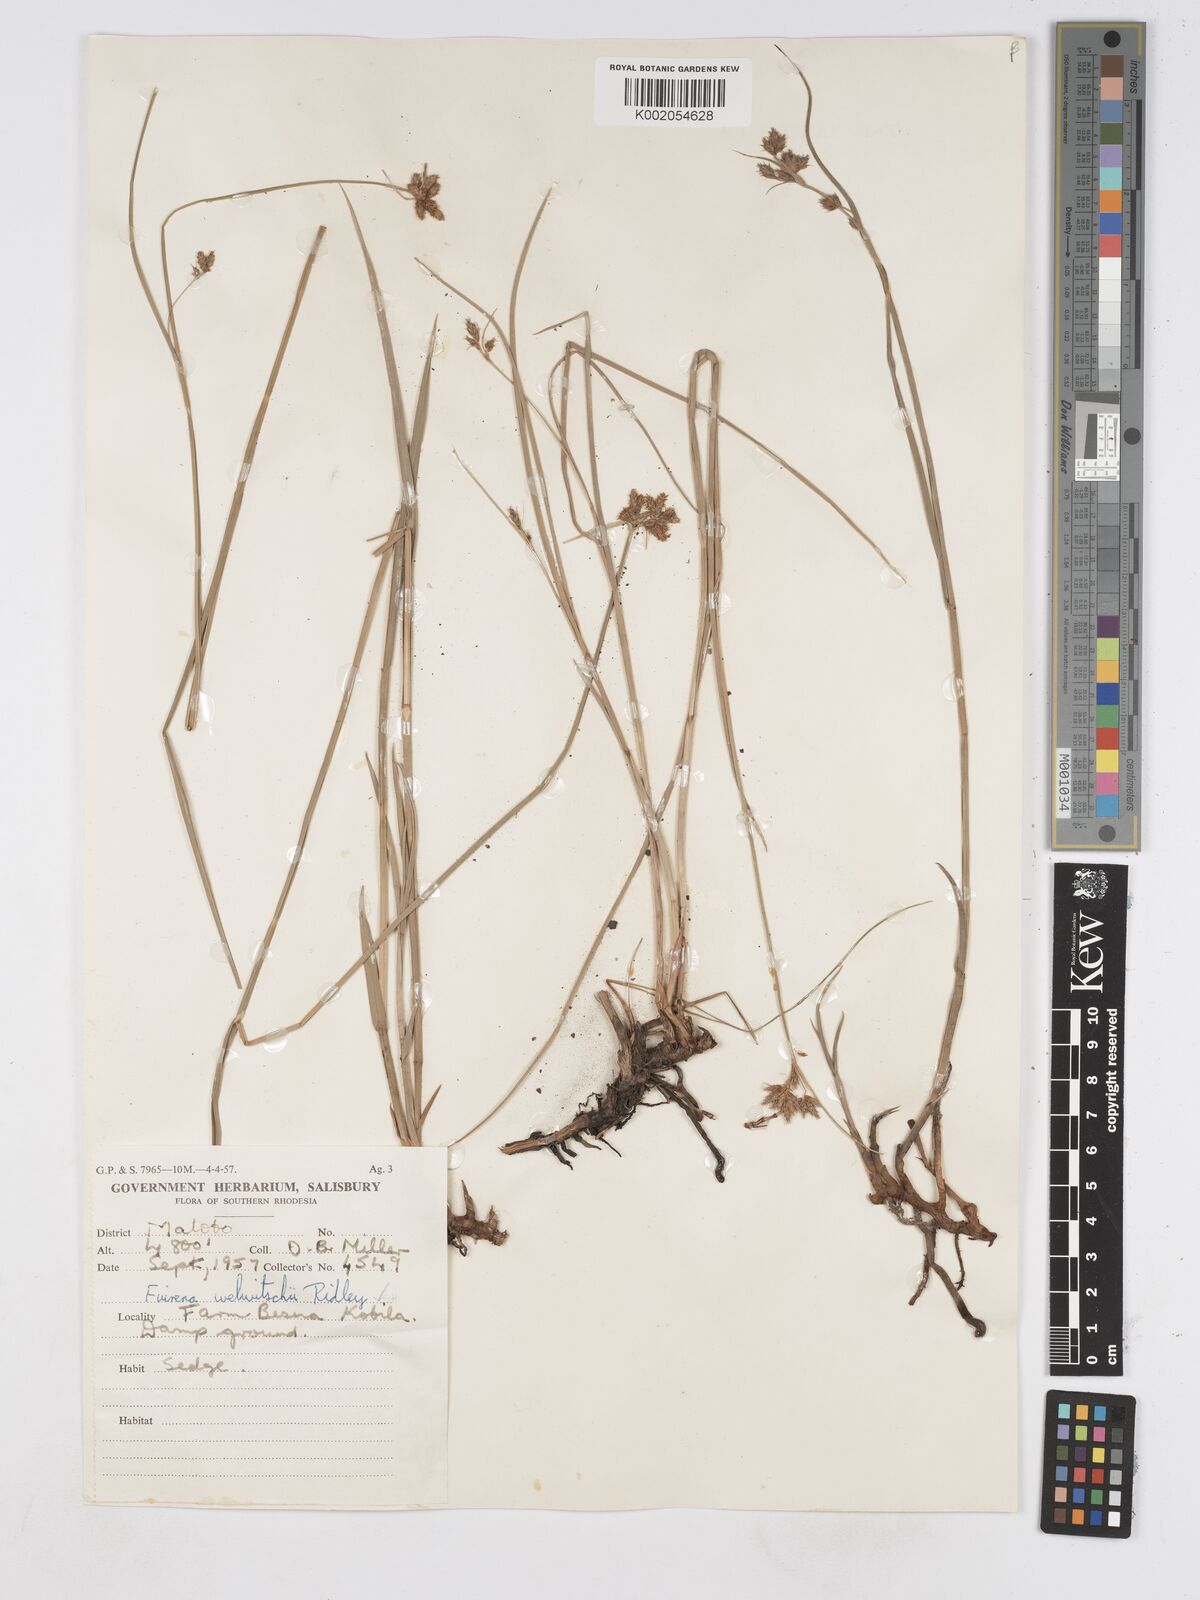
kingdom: Plantae
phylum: Tracheophyta
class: Liliopsida
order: Poales
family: Cyperaceae
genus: Fuirena
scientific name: Fuirena welwitschii
